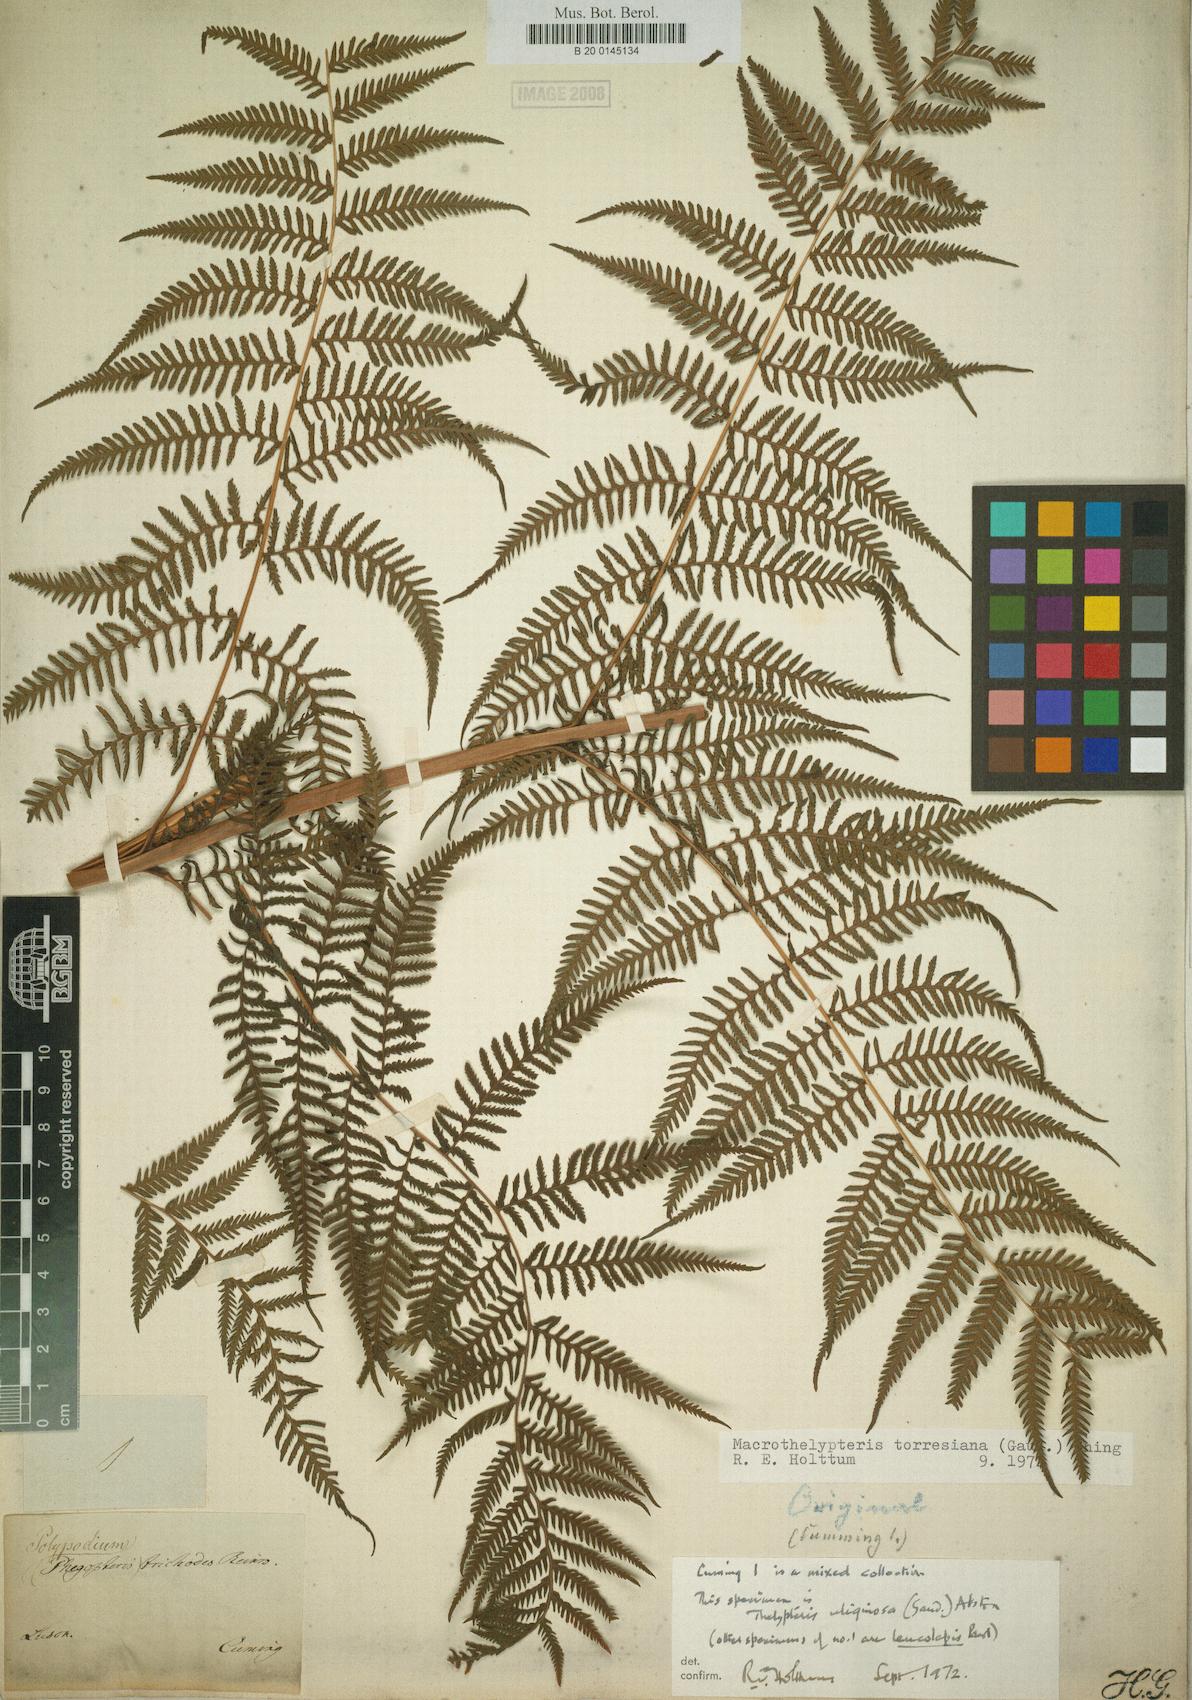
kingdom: Plantae
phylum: Tracheophyta
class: Polypodiopsida
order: Polypodiales
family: Thelypteridaceae
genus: Macrothelypteris
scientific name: Macrothelypteris torresiana
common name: Swordfern
